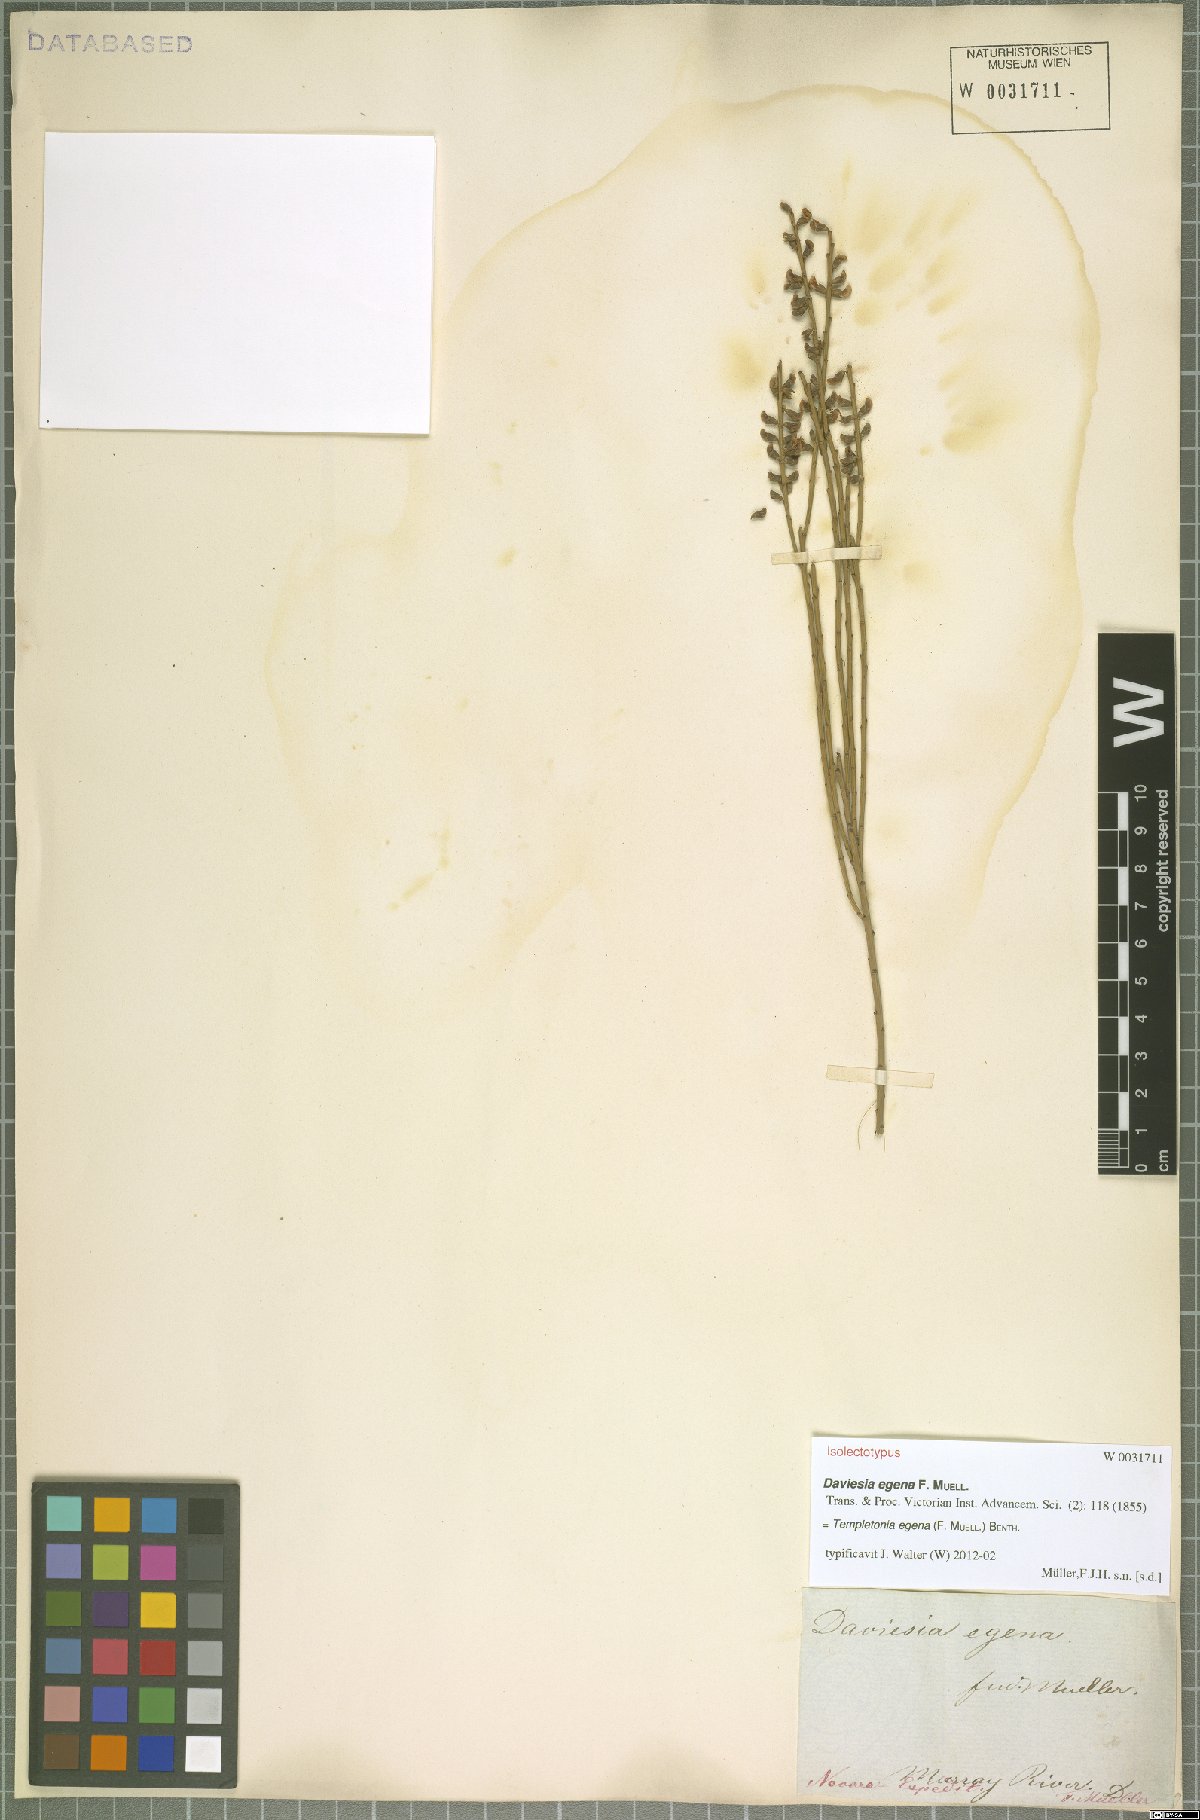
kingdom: Plantae
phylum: Tracheophyta
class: Magnoliopsida
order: Fabales
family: Fabaceae
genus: Templetonia
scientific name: Templetonia egena
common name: Desert broombush
